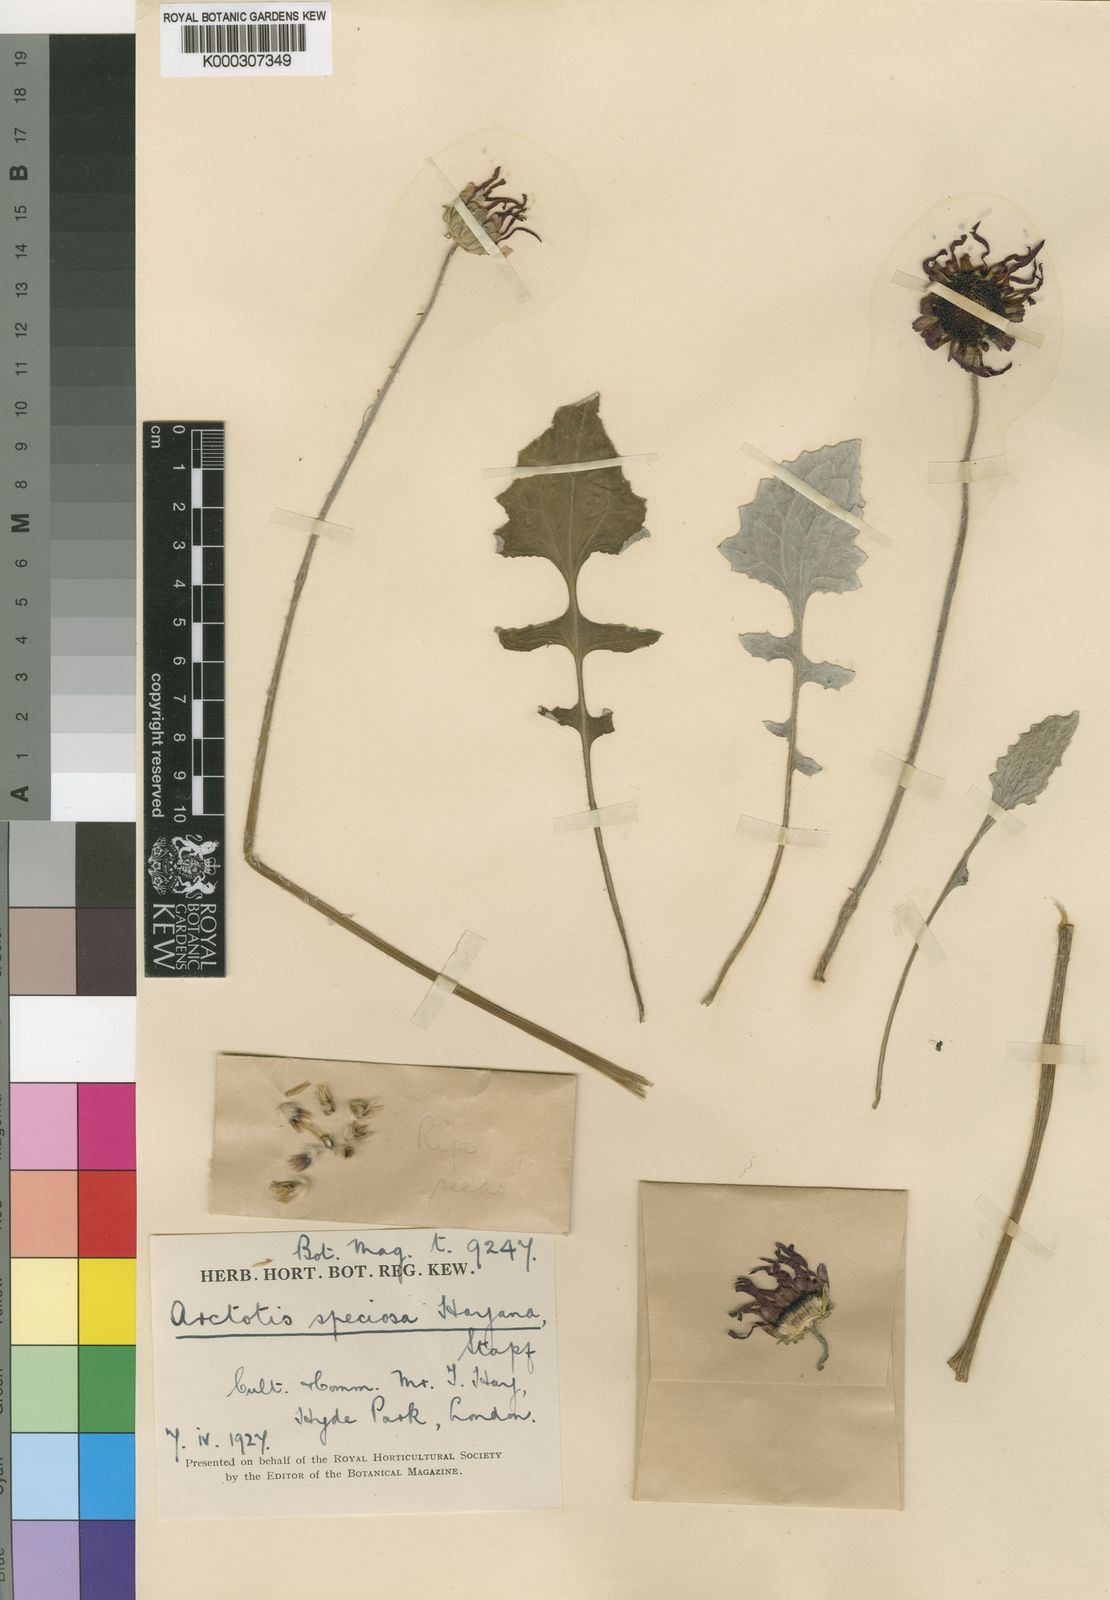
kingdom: Plantae
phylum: Tracheophyta
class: Magnoliopsida
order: Asterales
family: Asteraceae
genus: Arctotis
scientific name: Arctotis
